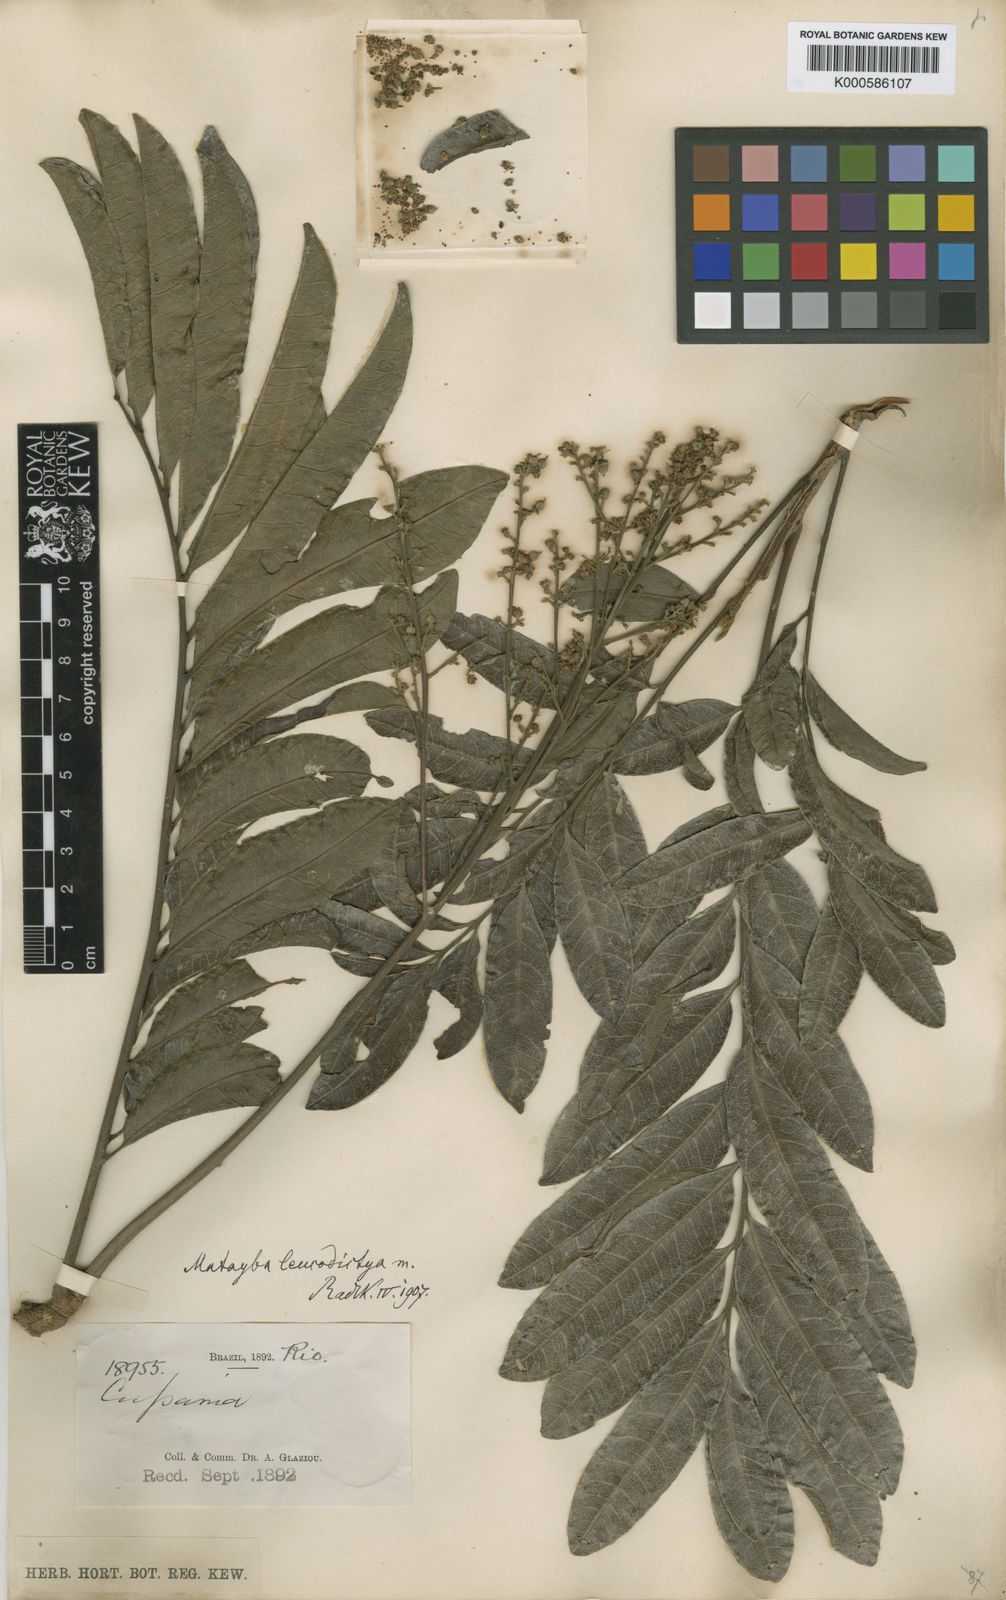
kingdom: Plantae
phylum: Tracheophyta
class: Magnoliopsida
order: Sapindales
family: Sapindaceae
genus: Matayba
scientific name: Matayba leucodictya
